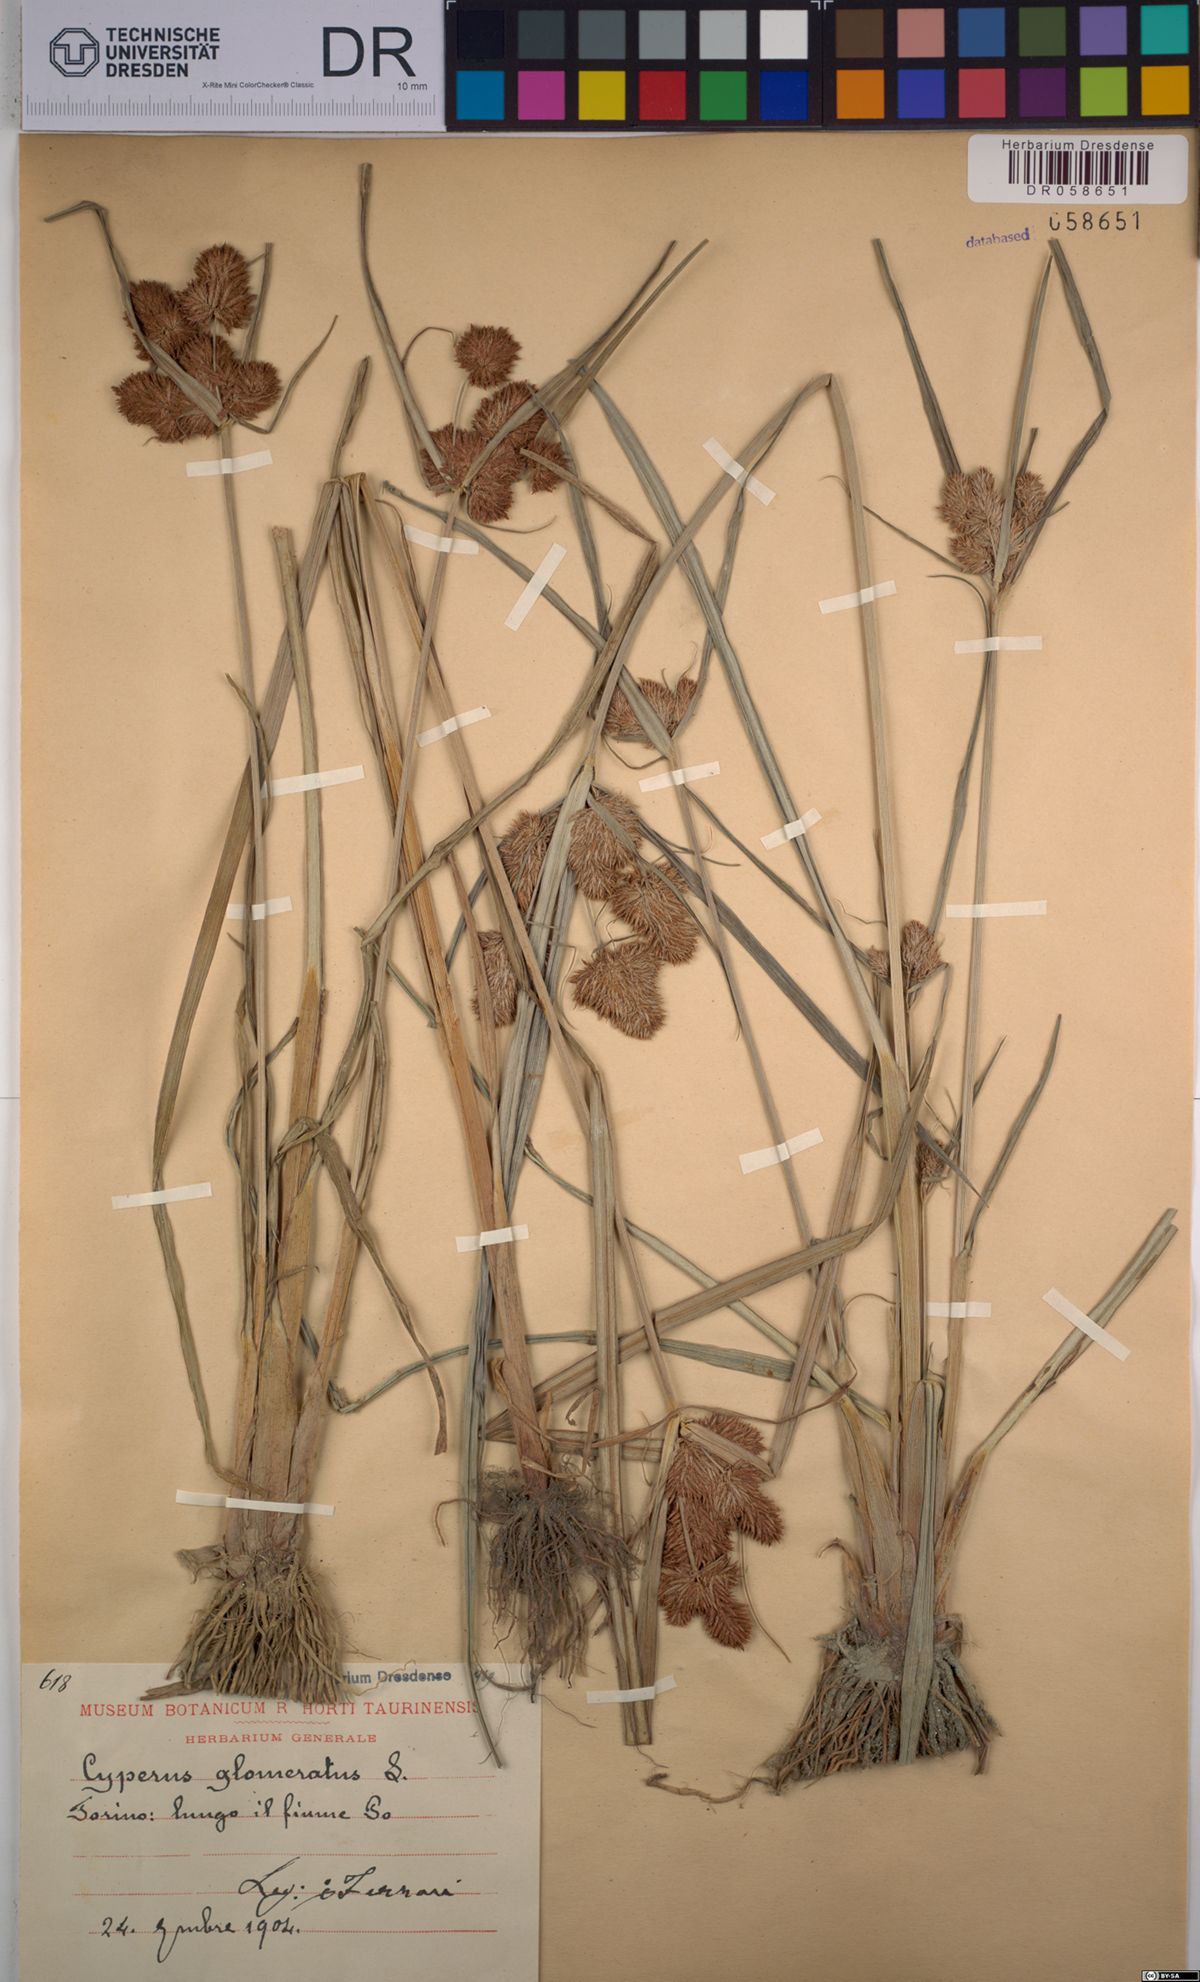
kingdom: Plantae
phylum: Tracheophyta
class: Liliopsida
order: Poales
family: Cyperaceae
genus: Cyperus
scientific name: Cyperus glomeratus
